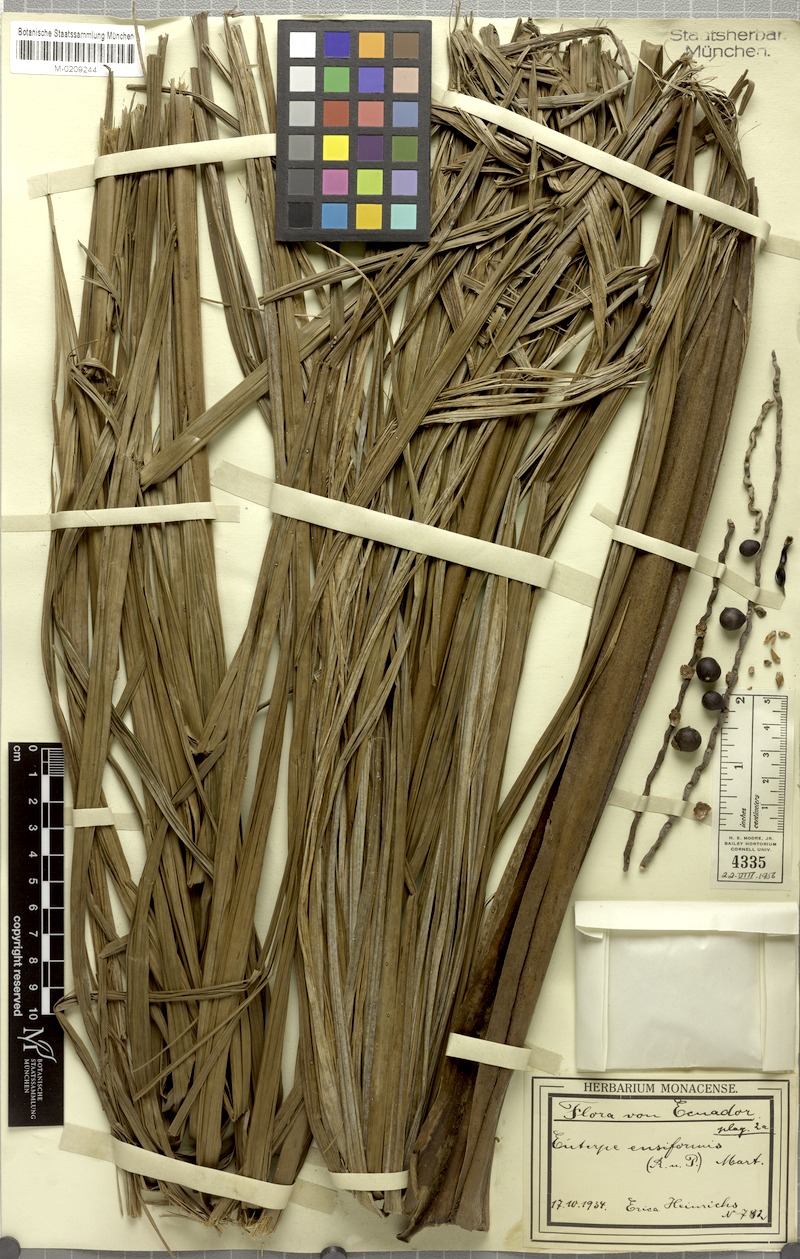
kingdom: Plantae
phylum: Tracheophyta
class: Liliopsida
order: Arecales
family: Arecaceae
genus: Prestoea
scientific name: Prestoea ensiformis
